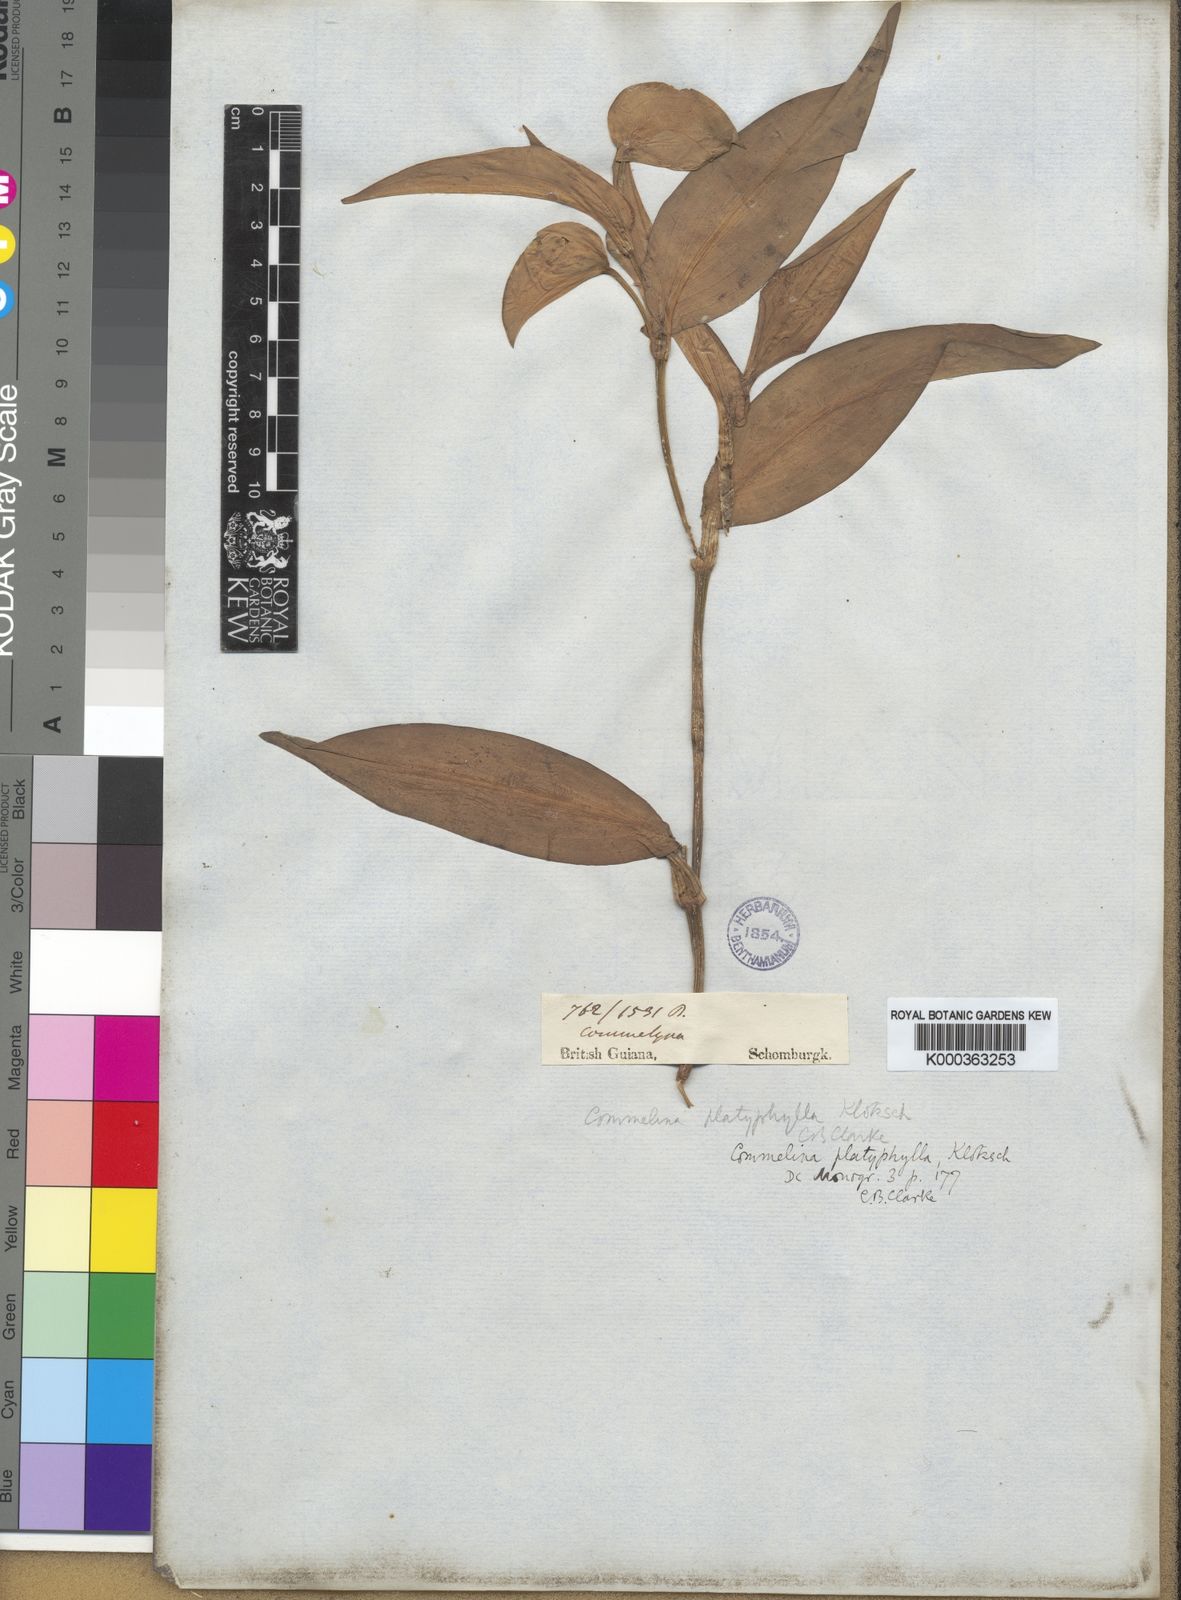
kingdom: Plantae
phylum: Tracheophyta
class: Liliopsida
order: Commelinales
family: Commelinaceae
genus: Commelina
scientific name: Commelina platyphylla
